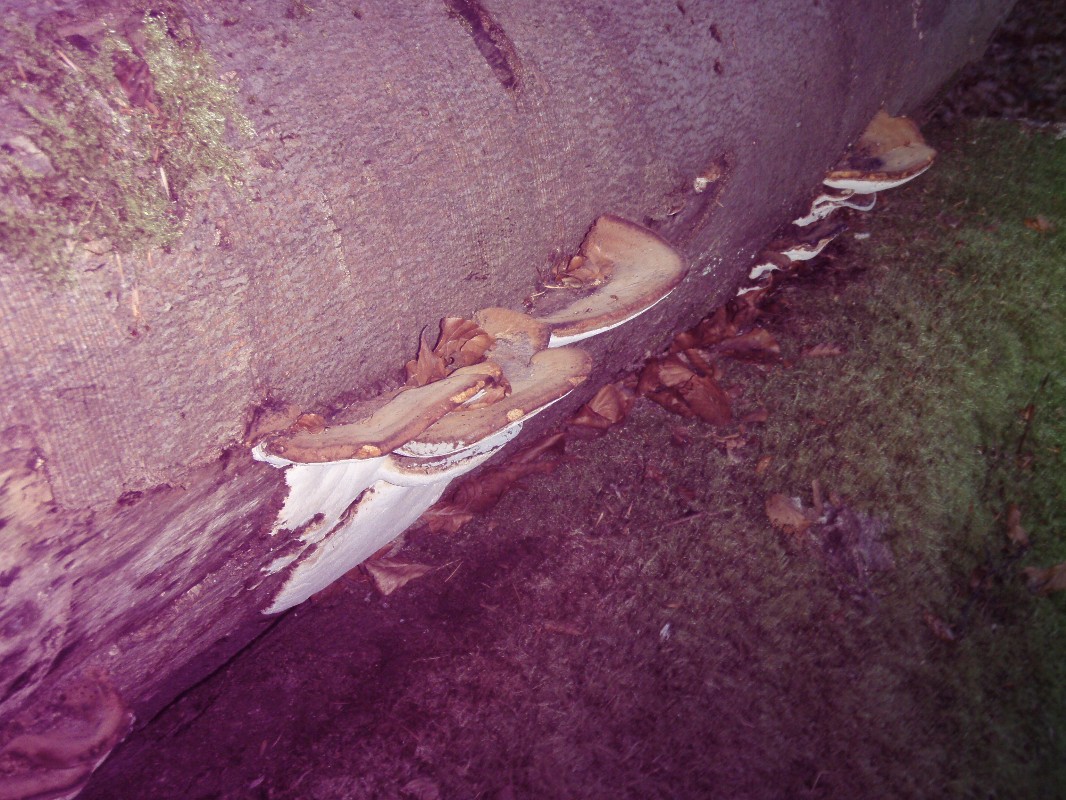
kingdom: Fungi
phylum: Basidiomycota
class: Agaricomycetes
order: Polyporales
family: Ischnodermataceae
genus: Ischnoderma
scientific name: Ischnoderma resinosum
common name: løv-tjæreporesvamp
